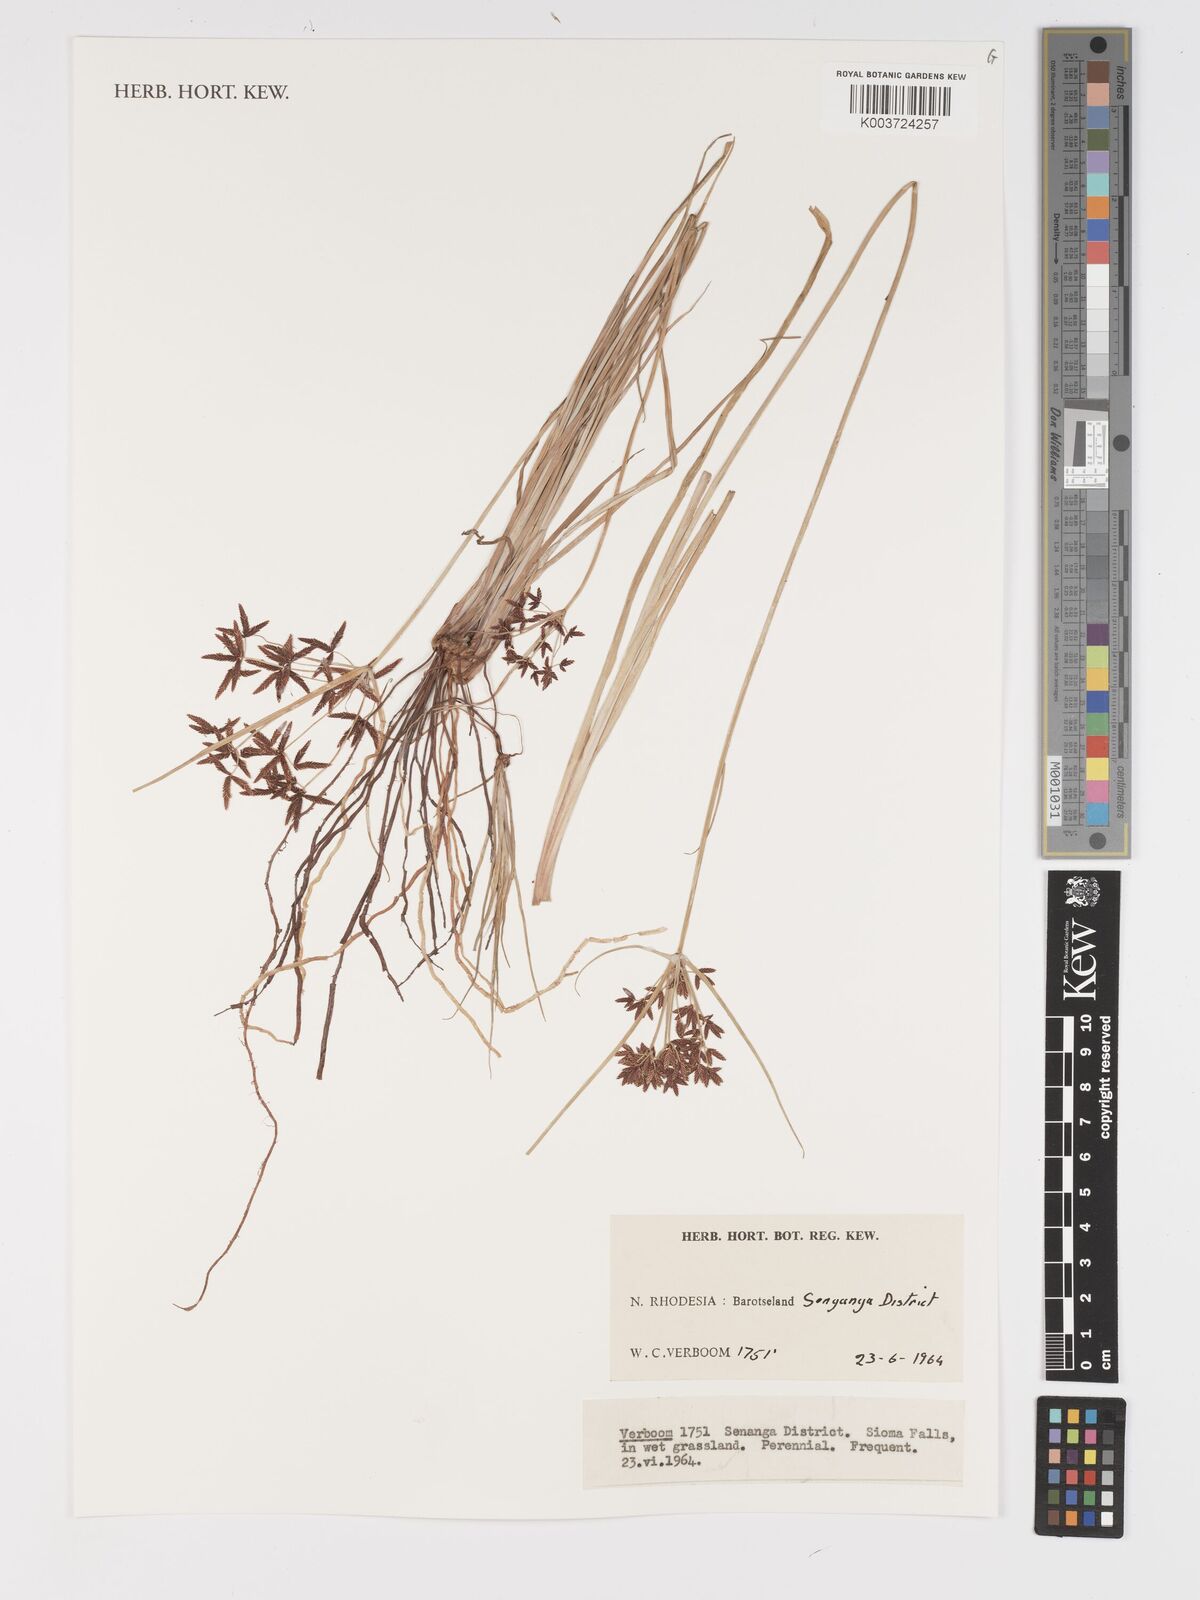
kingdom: Plantae
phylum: Tracheophyta
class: Liliopsida
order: Poales
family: Cyperaceae
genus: Cyperus
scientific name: Cyperus
